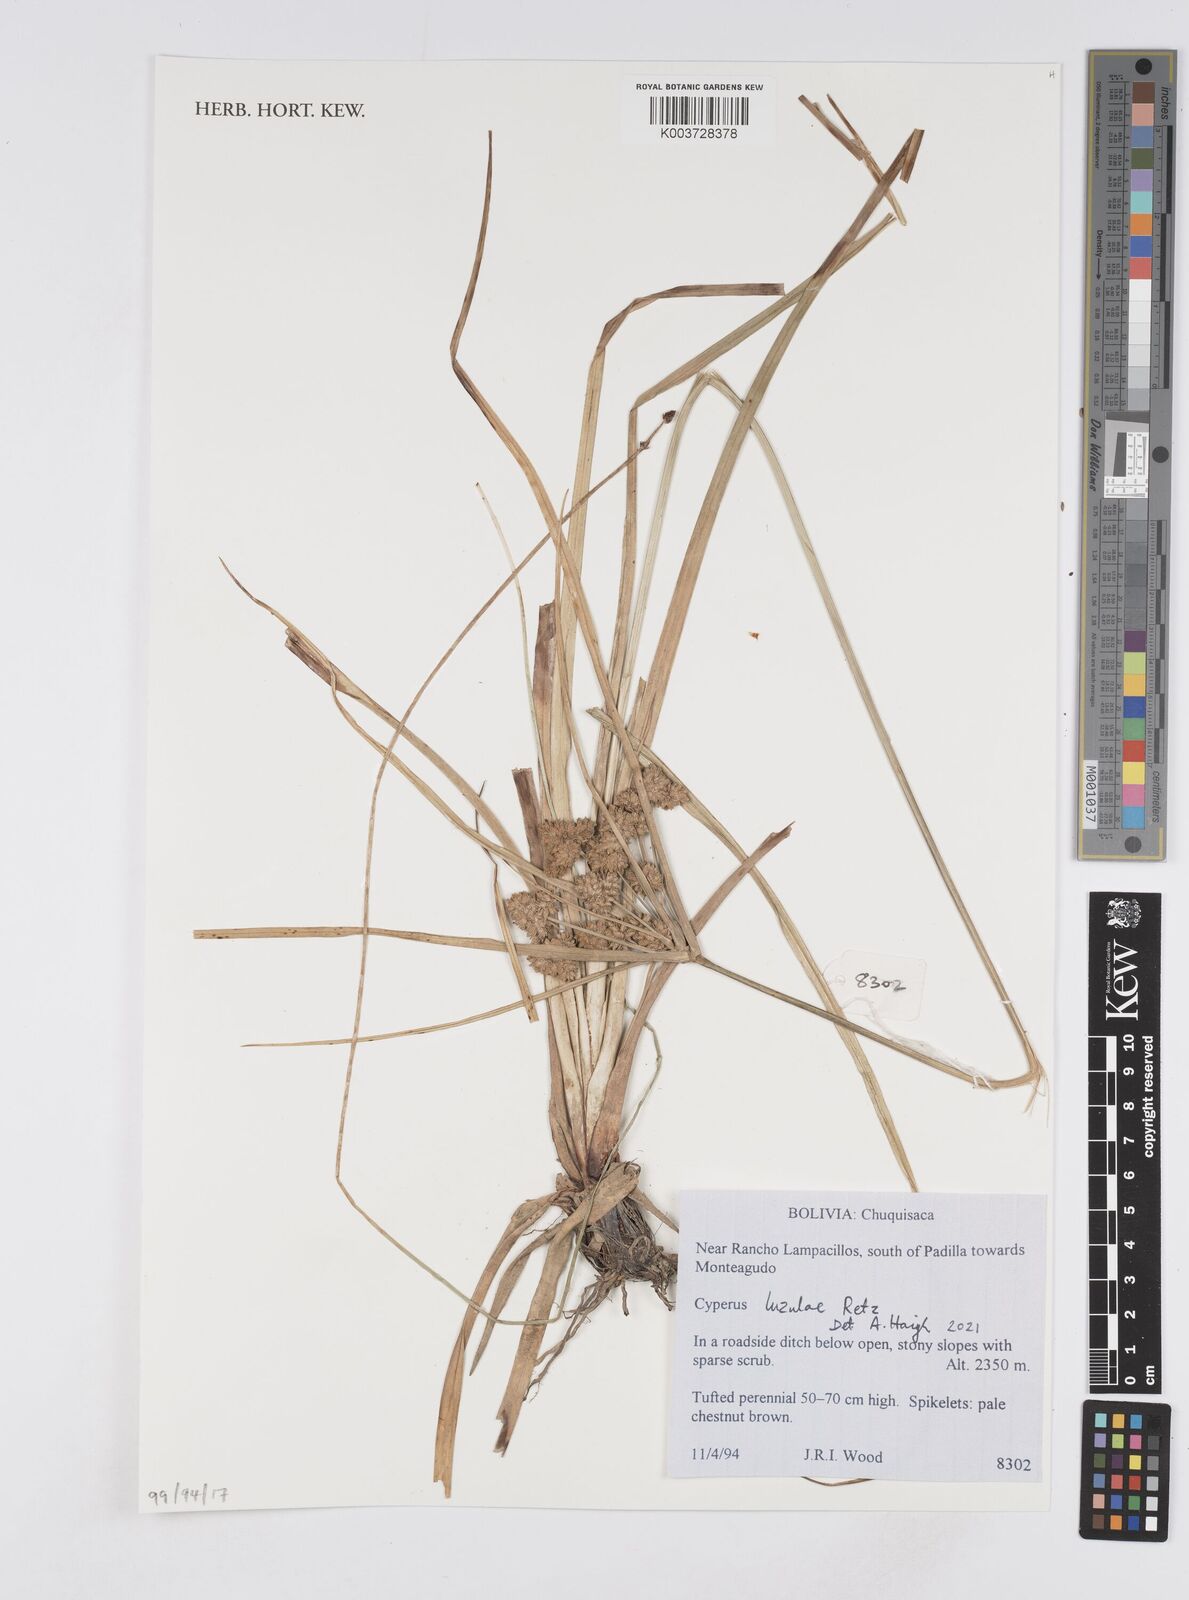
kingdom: Plantae
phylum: Tracheophyta
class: Liliopsida
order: Poales
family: Cyperaceae
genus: Cyperus
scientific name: Cyperus
